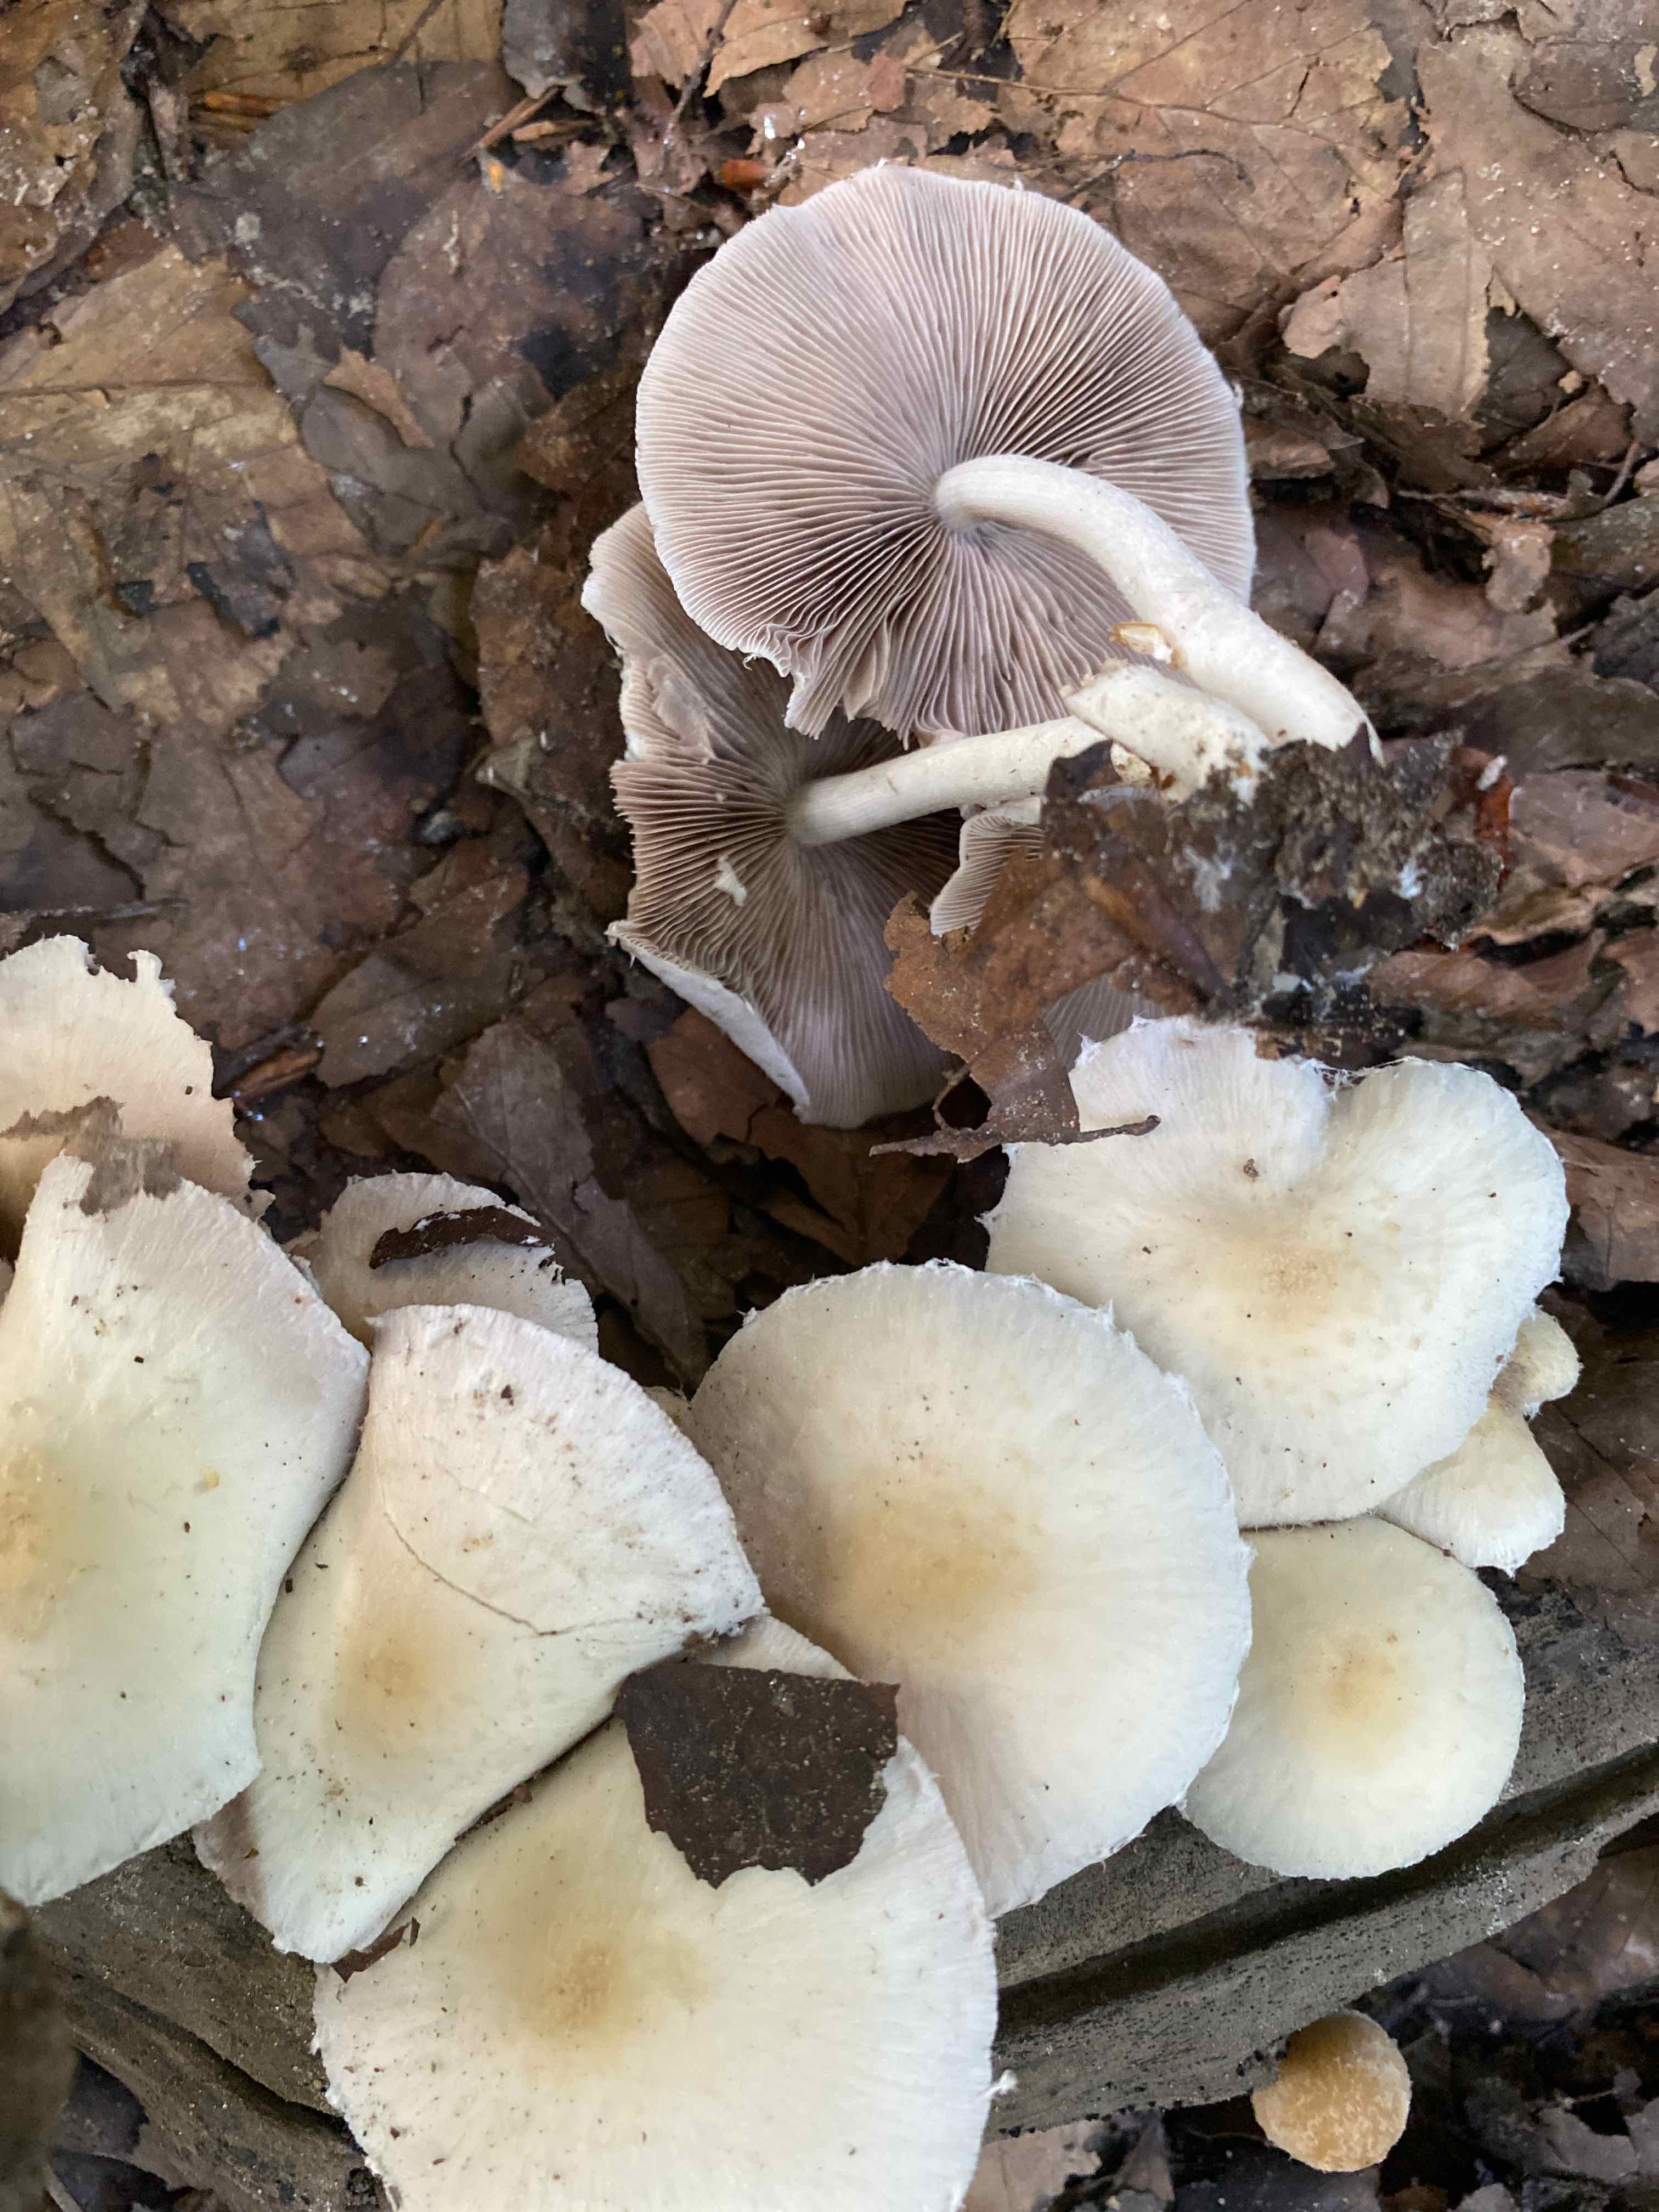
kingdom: Fungi
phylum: Basidiomycota
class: Agaricomycetes
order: Agaricales
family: Psathyrellaceae
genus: Candolleomyces
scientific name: Candolleomyces candolleanus
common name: Candolles mørkhat
